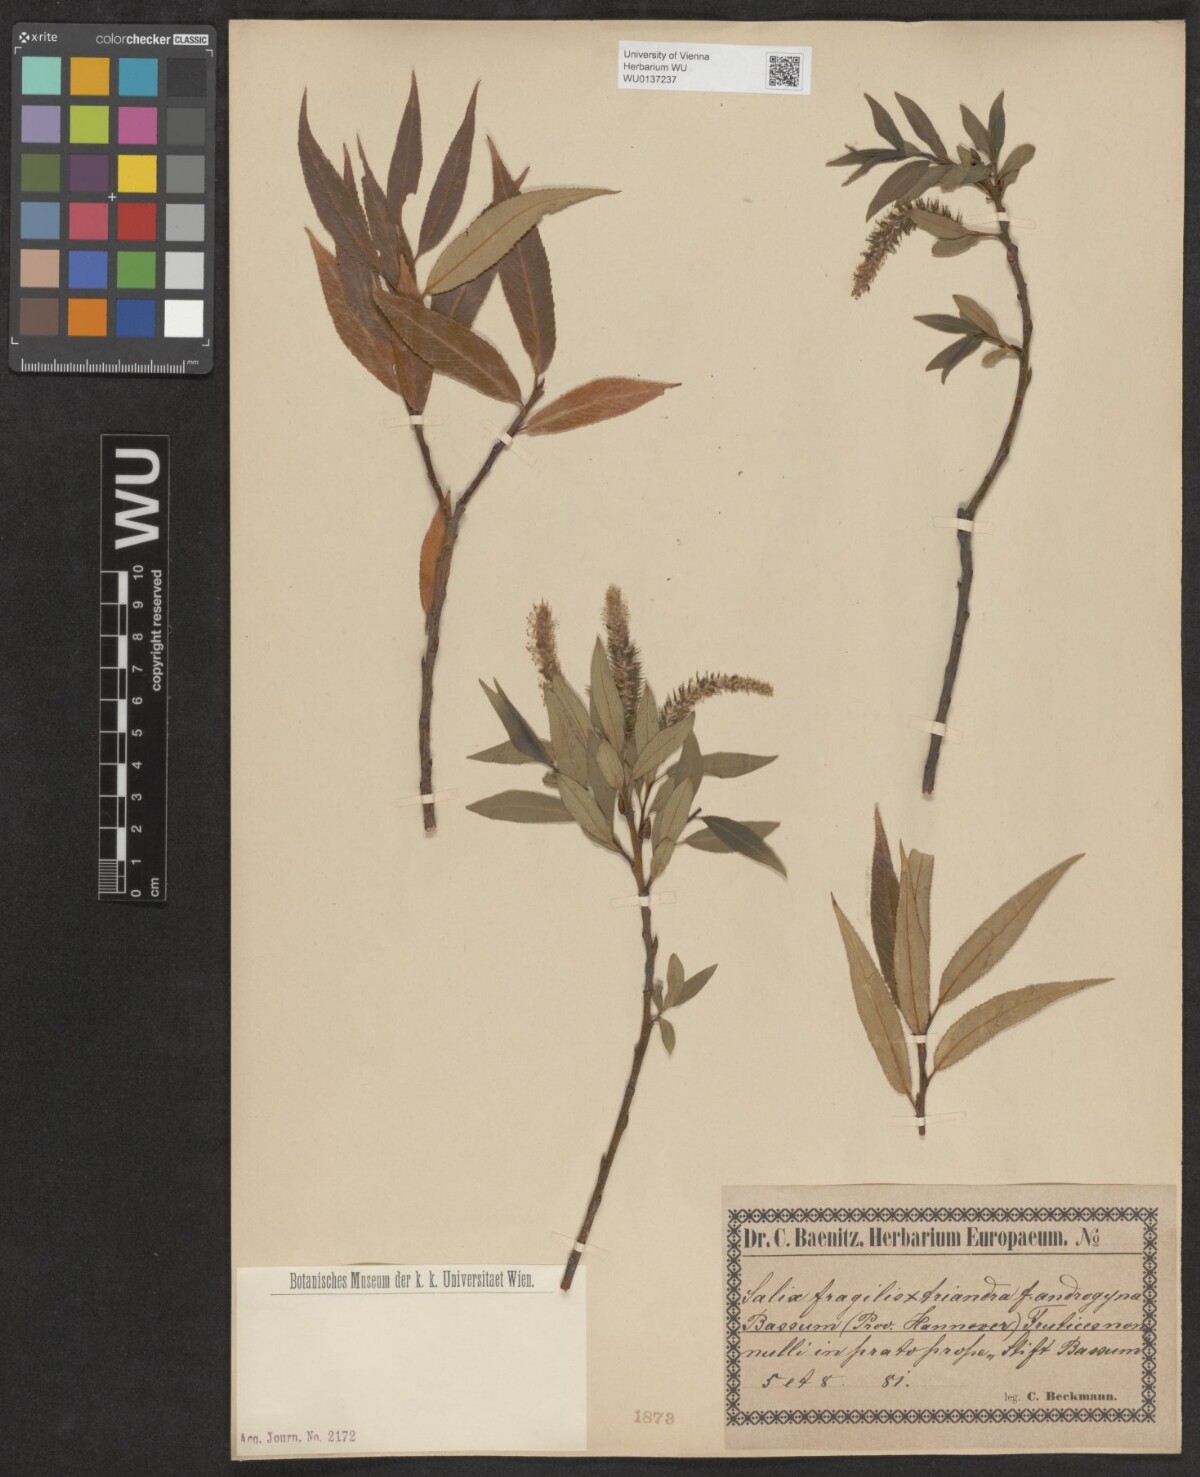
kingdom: Plantae
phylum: Tracheophyta
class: Magnoliopsida
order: Malpighiales
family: Salicaceae
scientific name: Salicaceae
